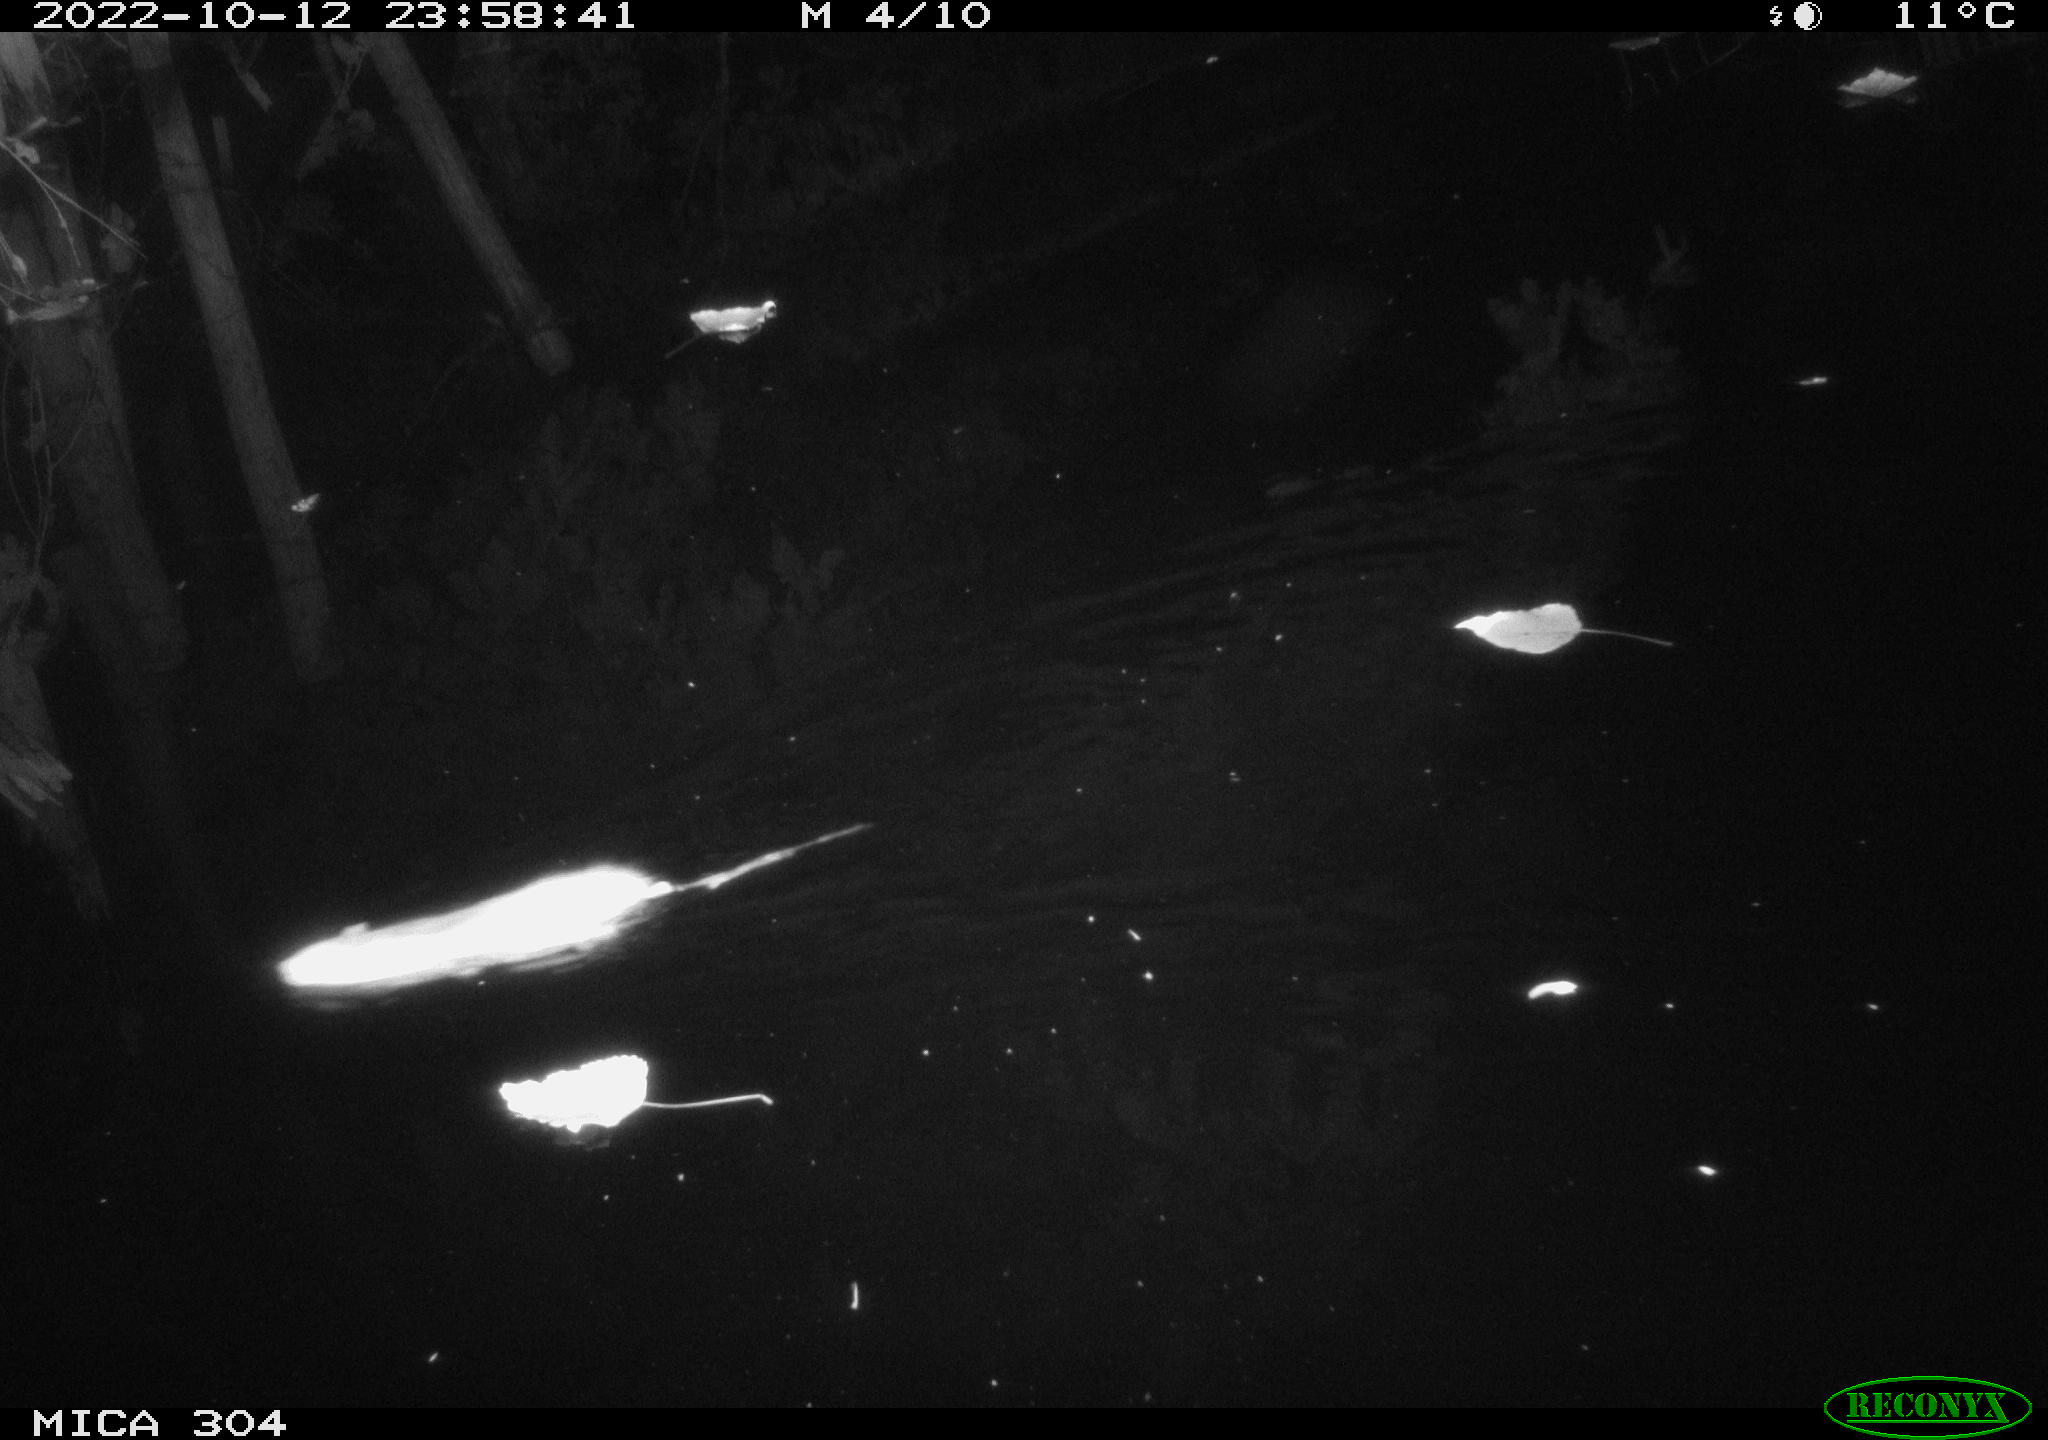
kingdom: Animalia
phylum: Chordata
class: Mammalia
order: Rodentia
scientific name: Rodentia
